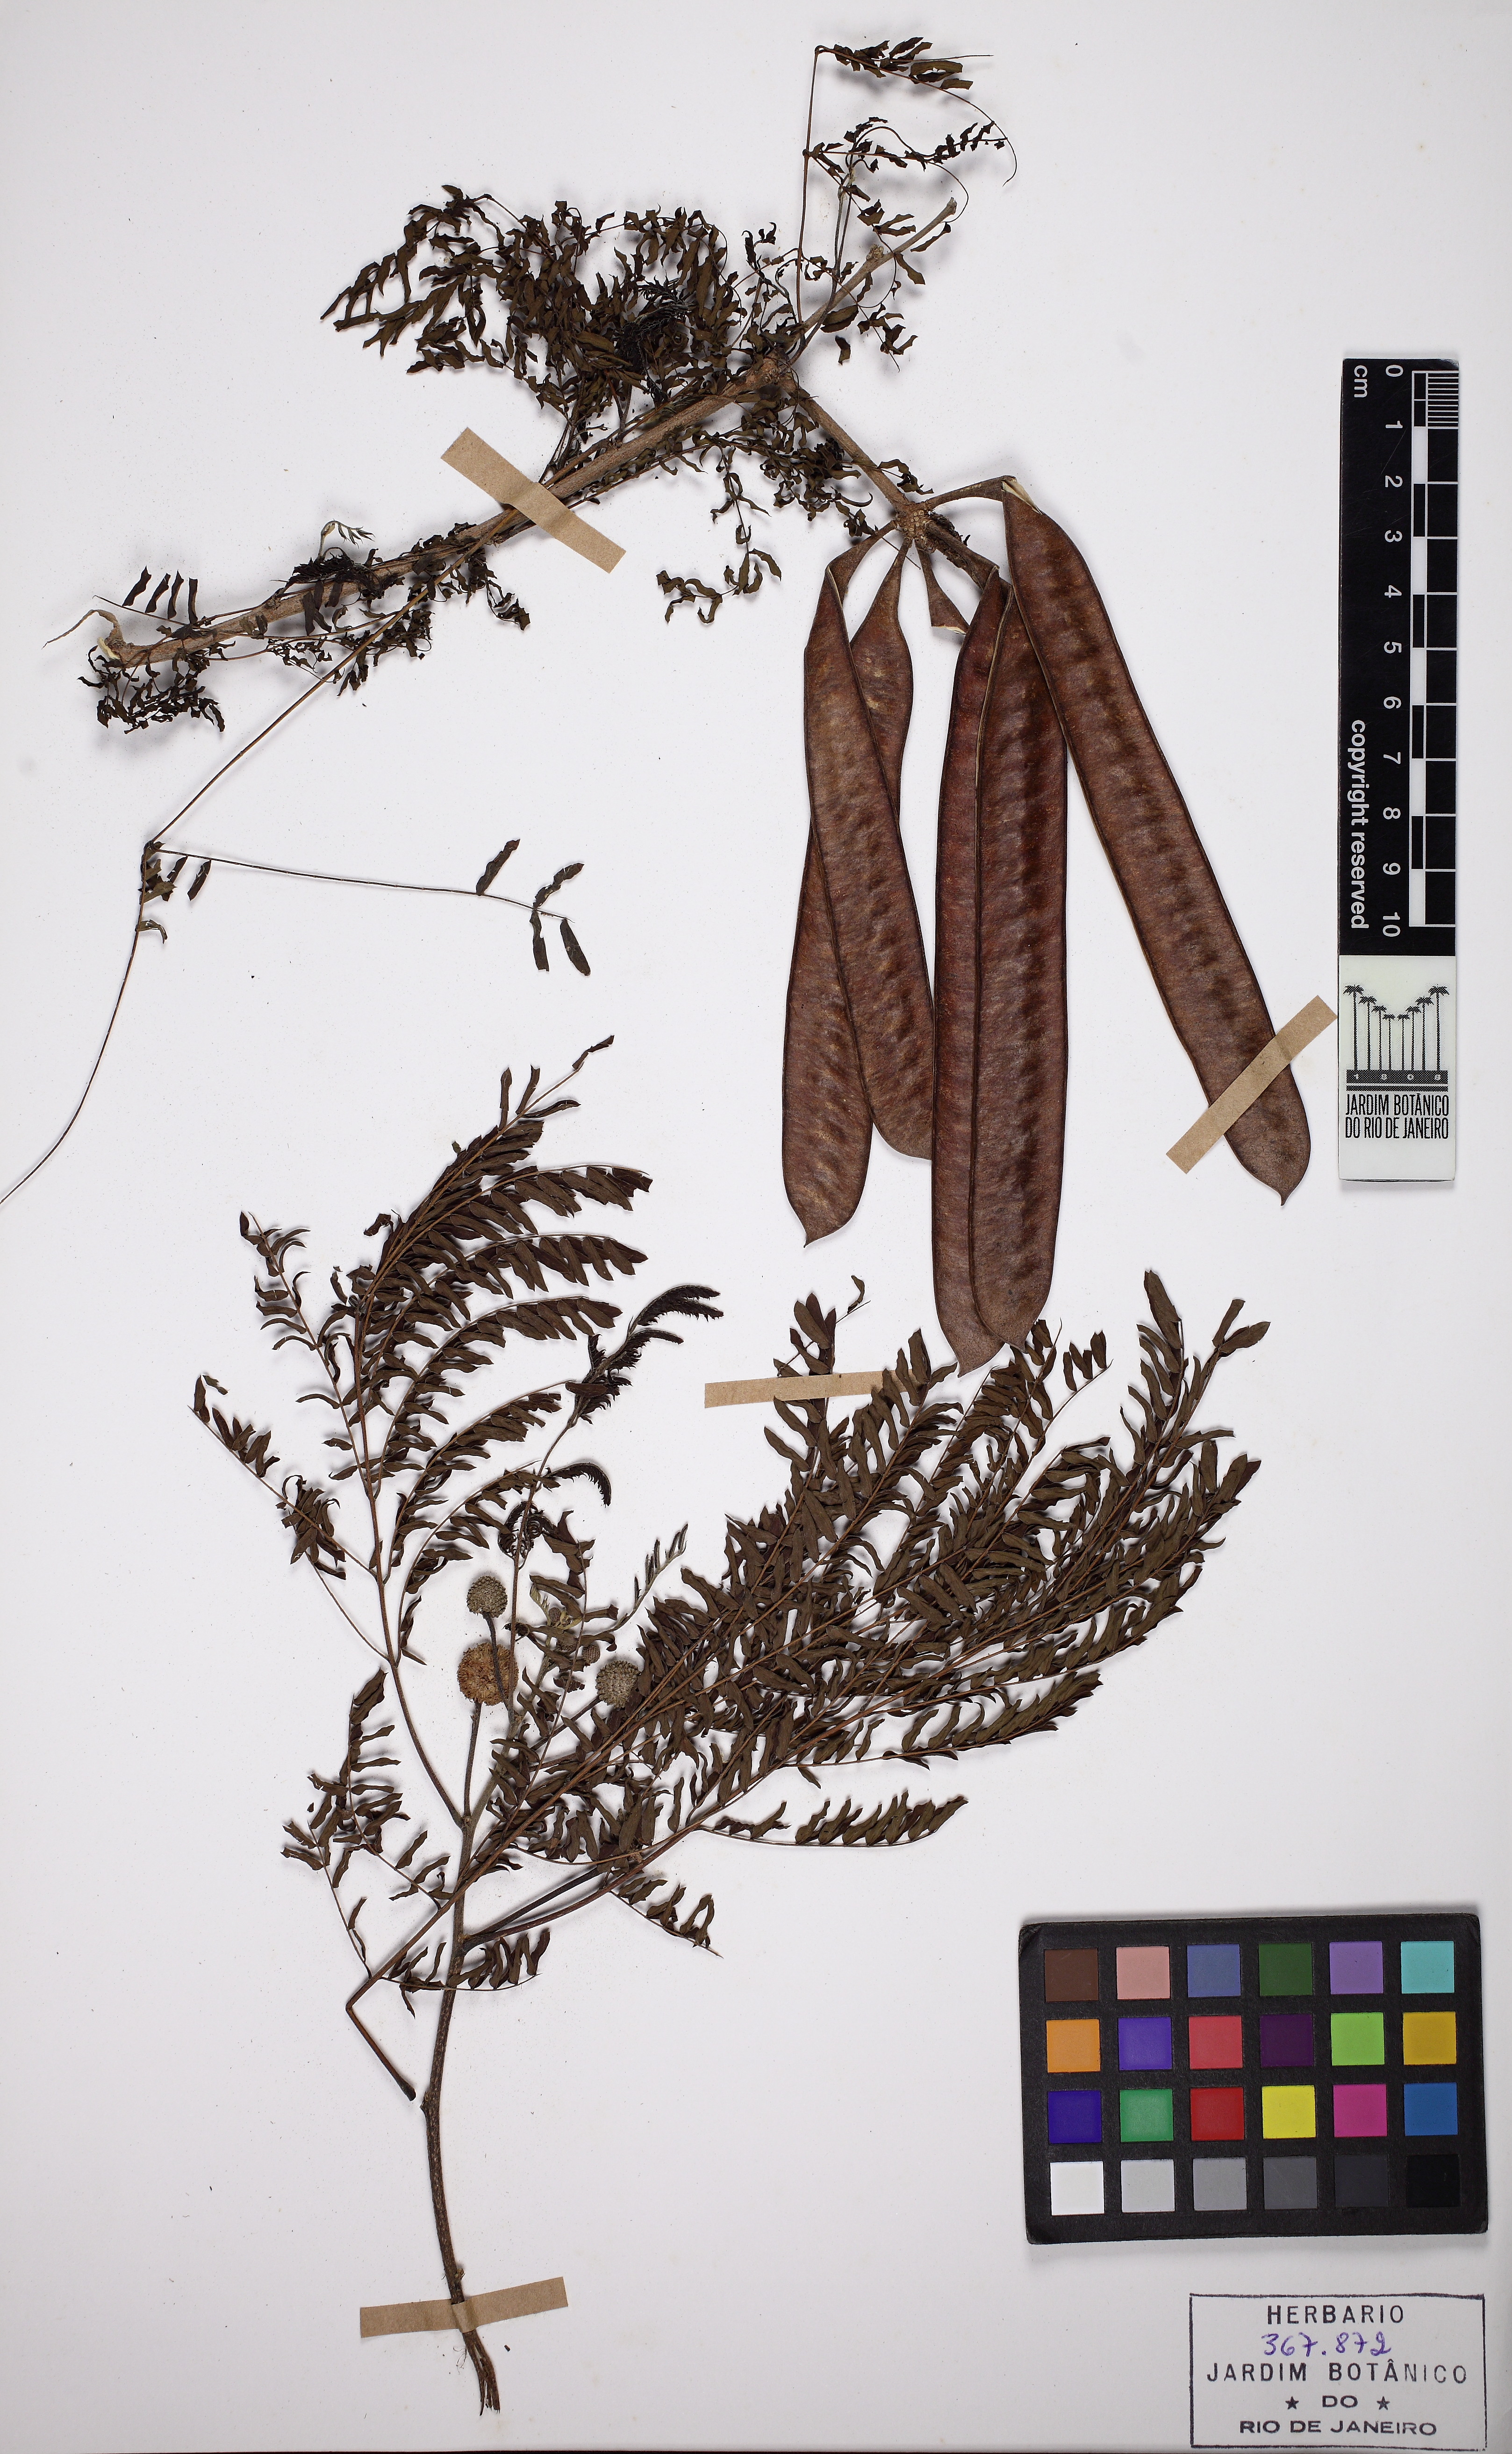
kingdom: Plantae
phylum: Tracheophyta
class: Magnoliopsida
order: Fabales
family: Fabaceae
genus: Leucaena
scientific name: Leucaena leucocephala
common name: White leadtree
